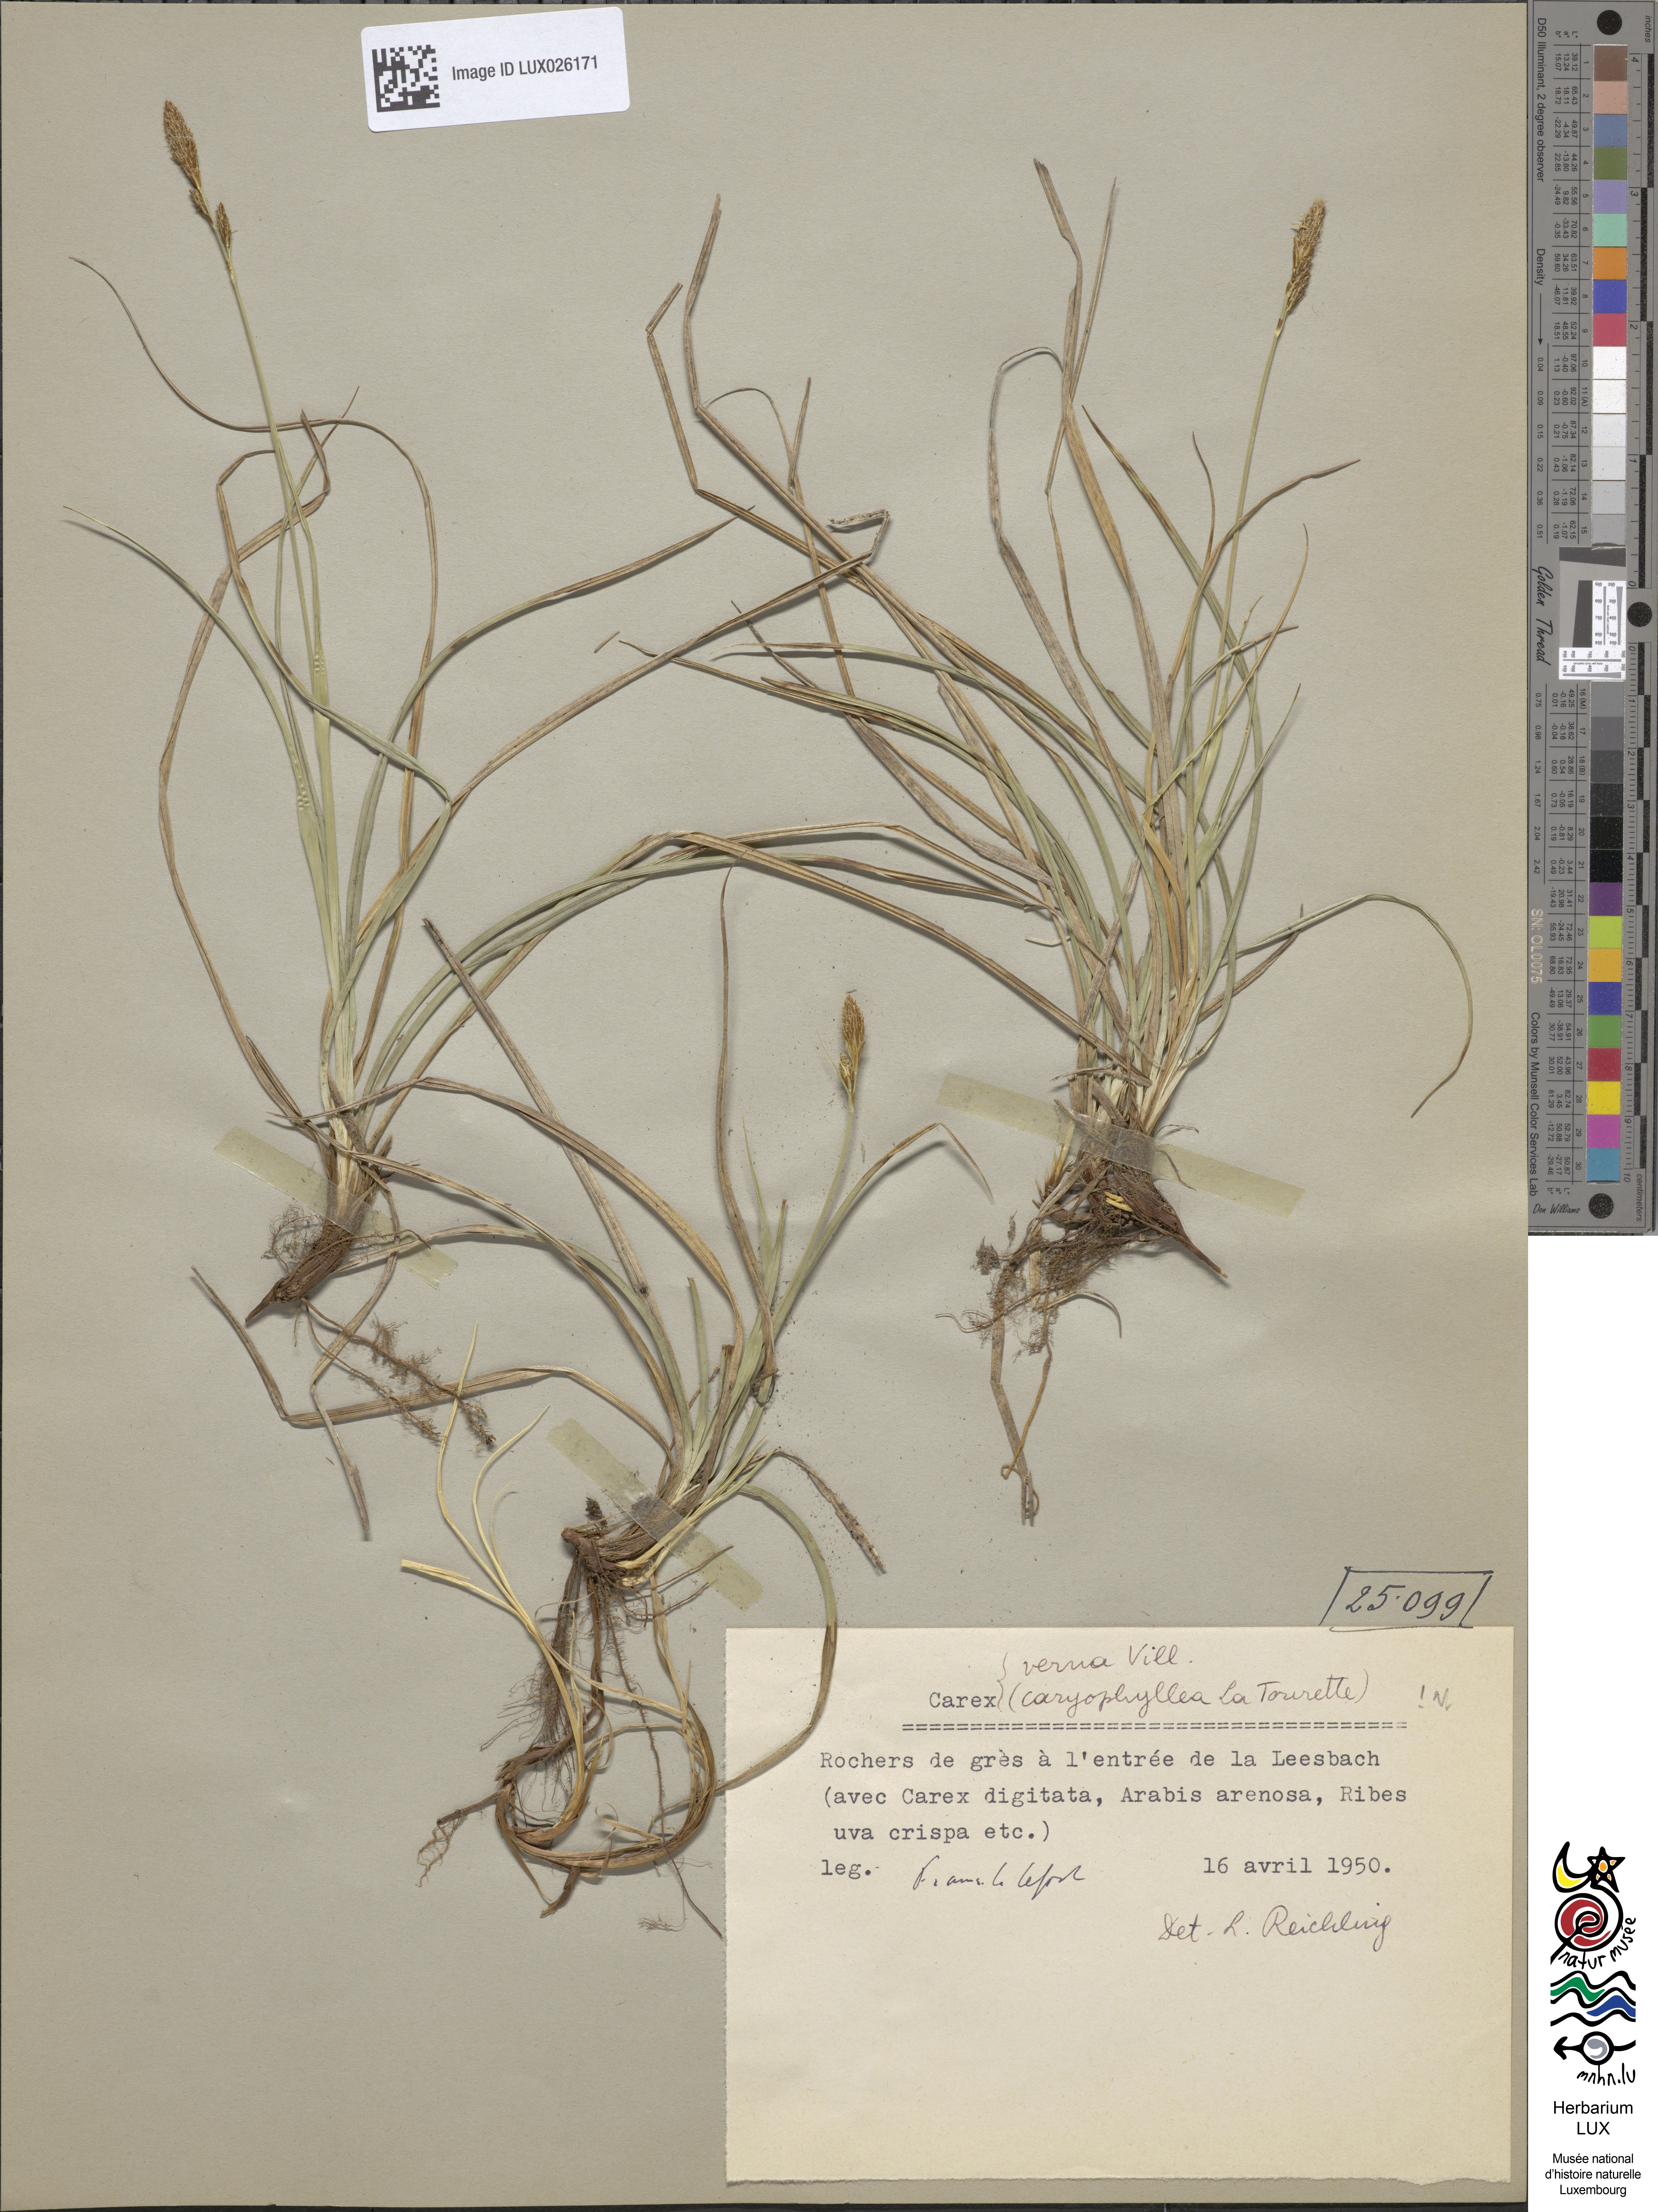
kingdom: Plantae
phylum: Tracheophyta
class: Liliopsida
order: Poales
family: Cyperaceae
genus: Carex
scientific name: Carex
